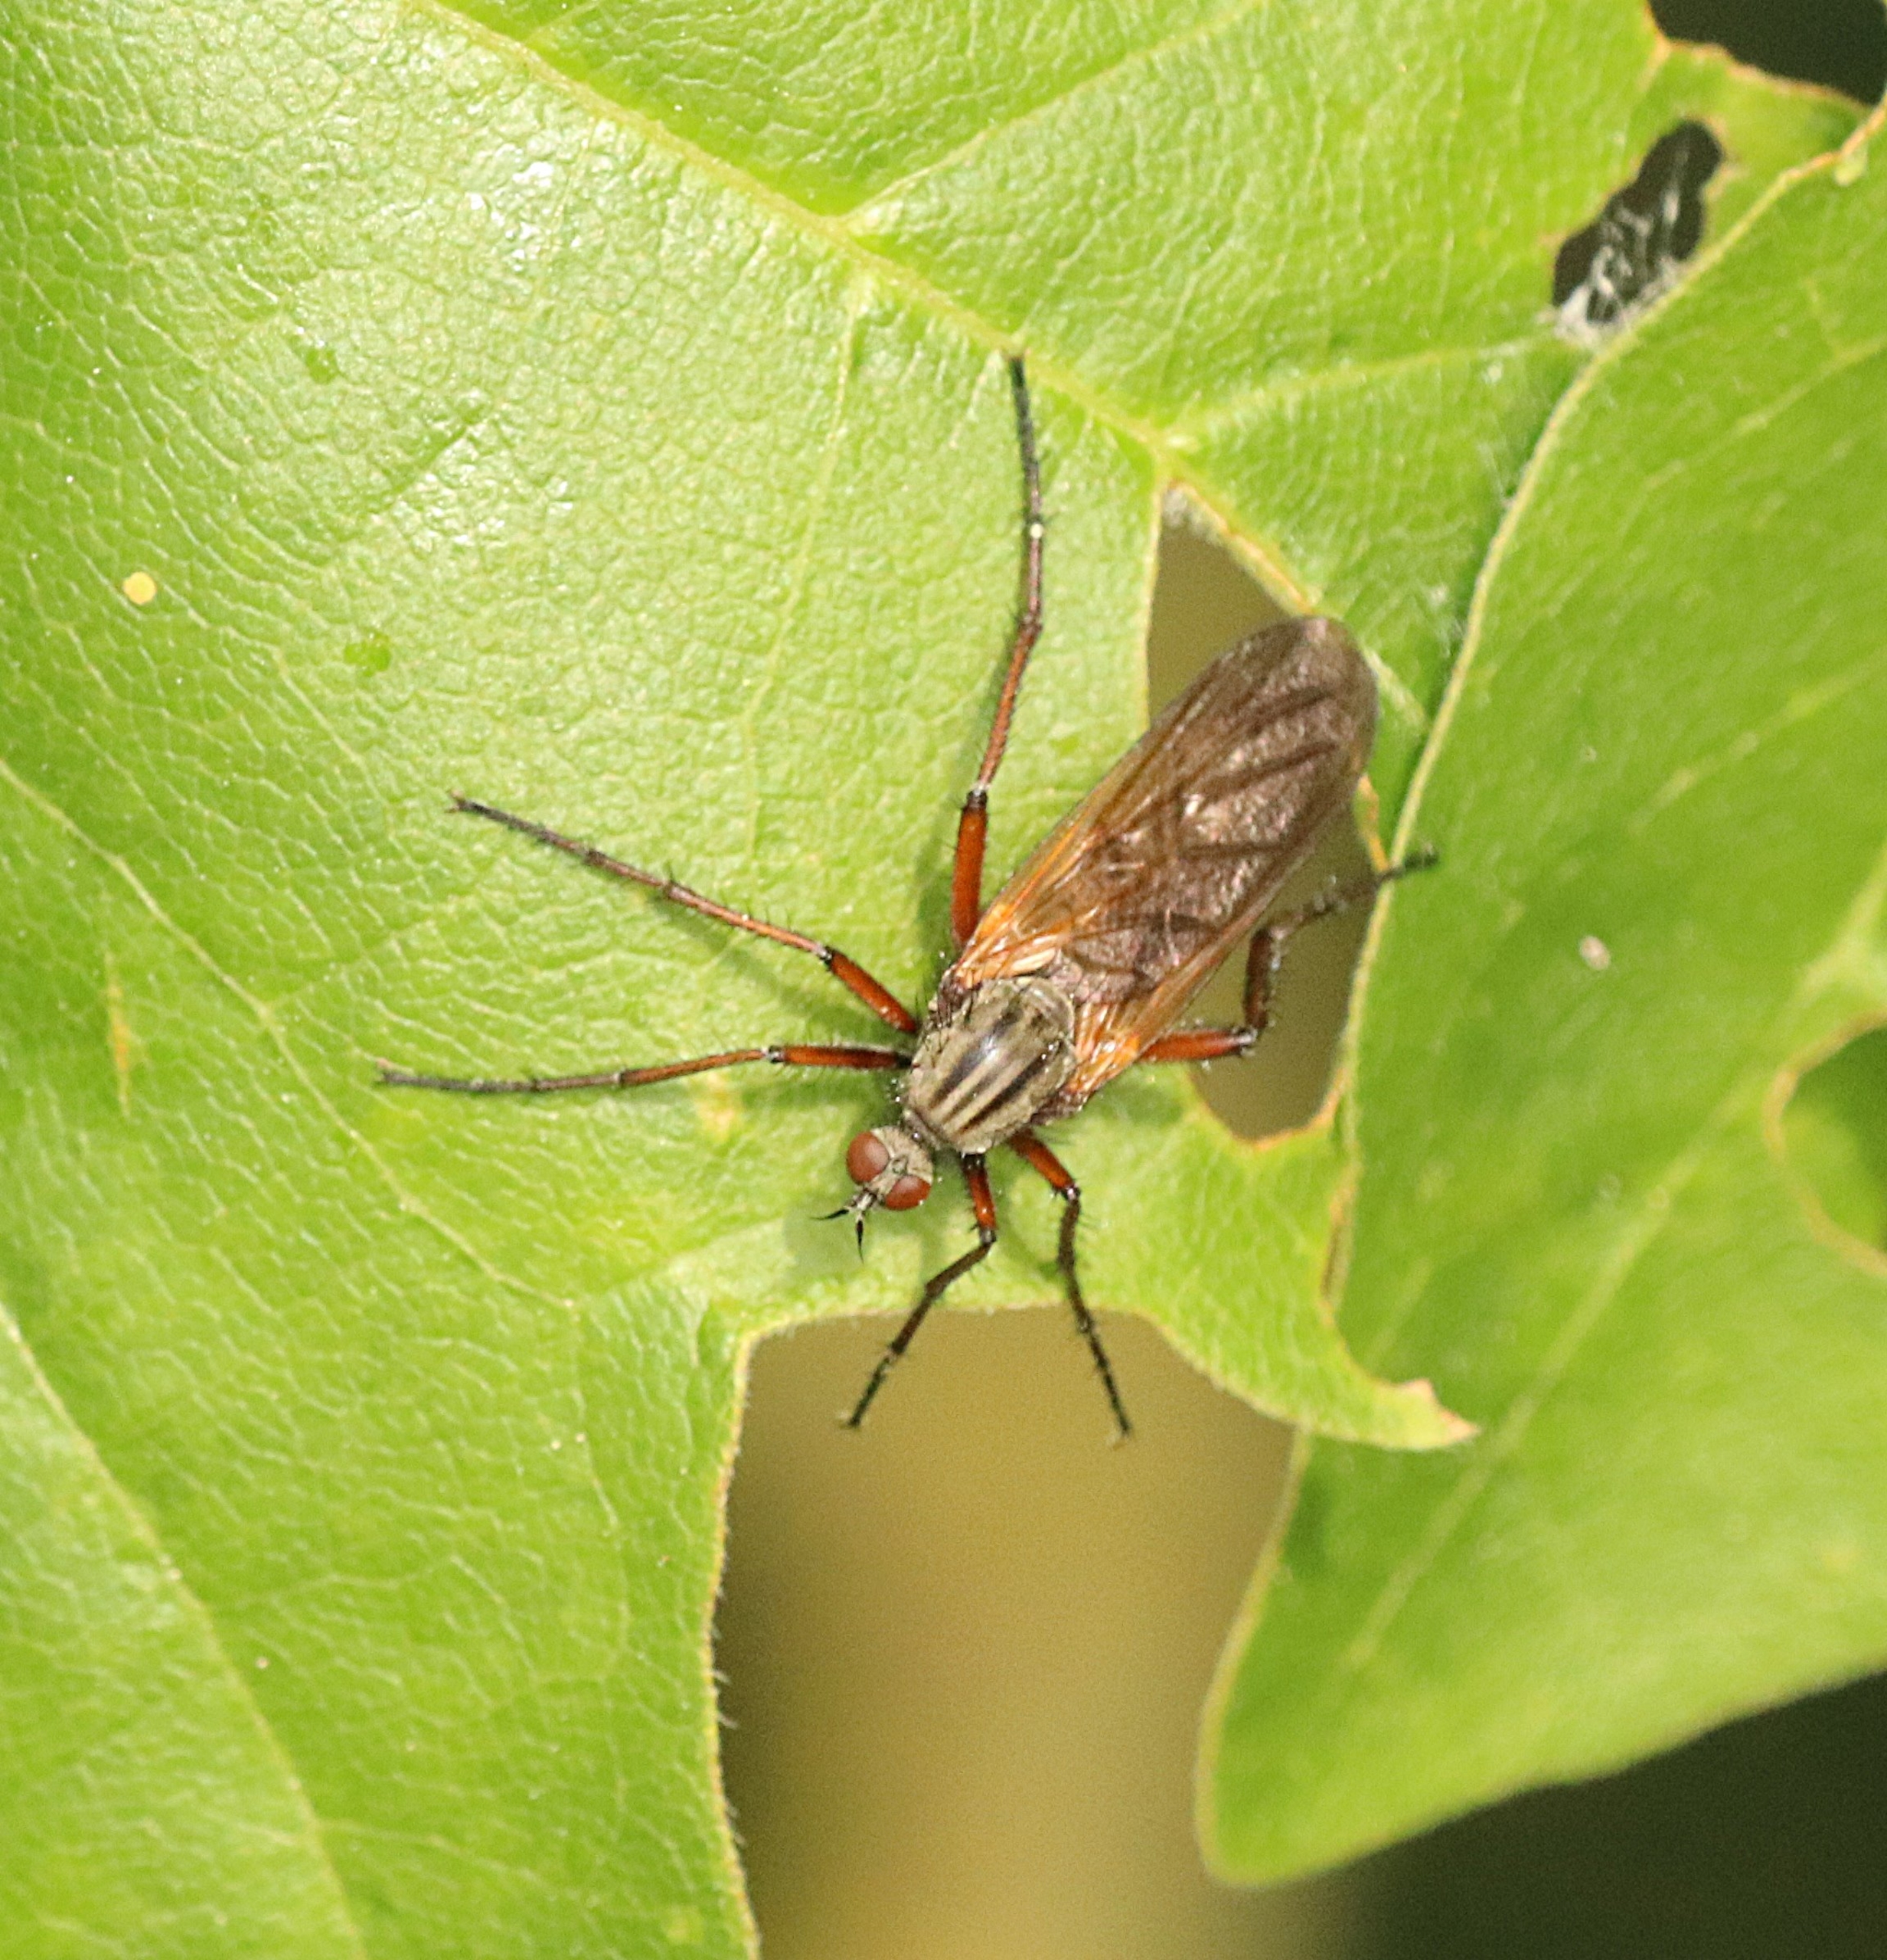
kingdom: Animalia
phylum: Arthropoda
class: Insecta
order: Diptera
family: Empididae
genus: Empis
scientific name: Empis tessellata
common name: Stor danseflue
